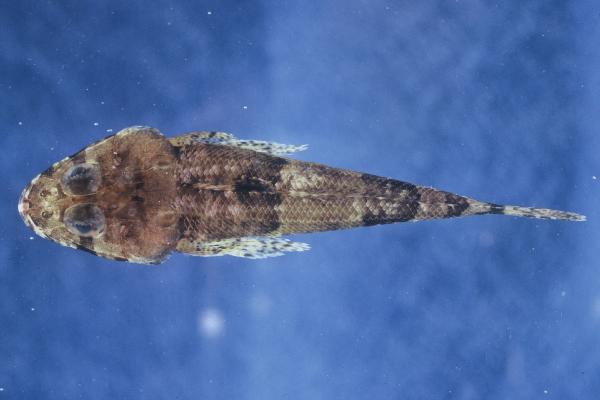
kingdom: Animalia
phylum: Chordata
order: Scorpaeniformes
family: Platycephalidae
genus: Thysanophrys
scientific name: Thysanophrys celebica
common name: Celebes flathead
